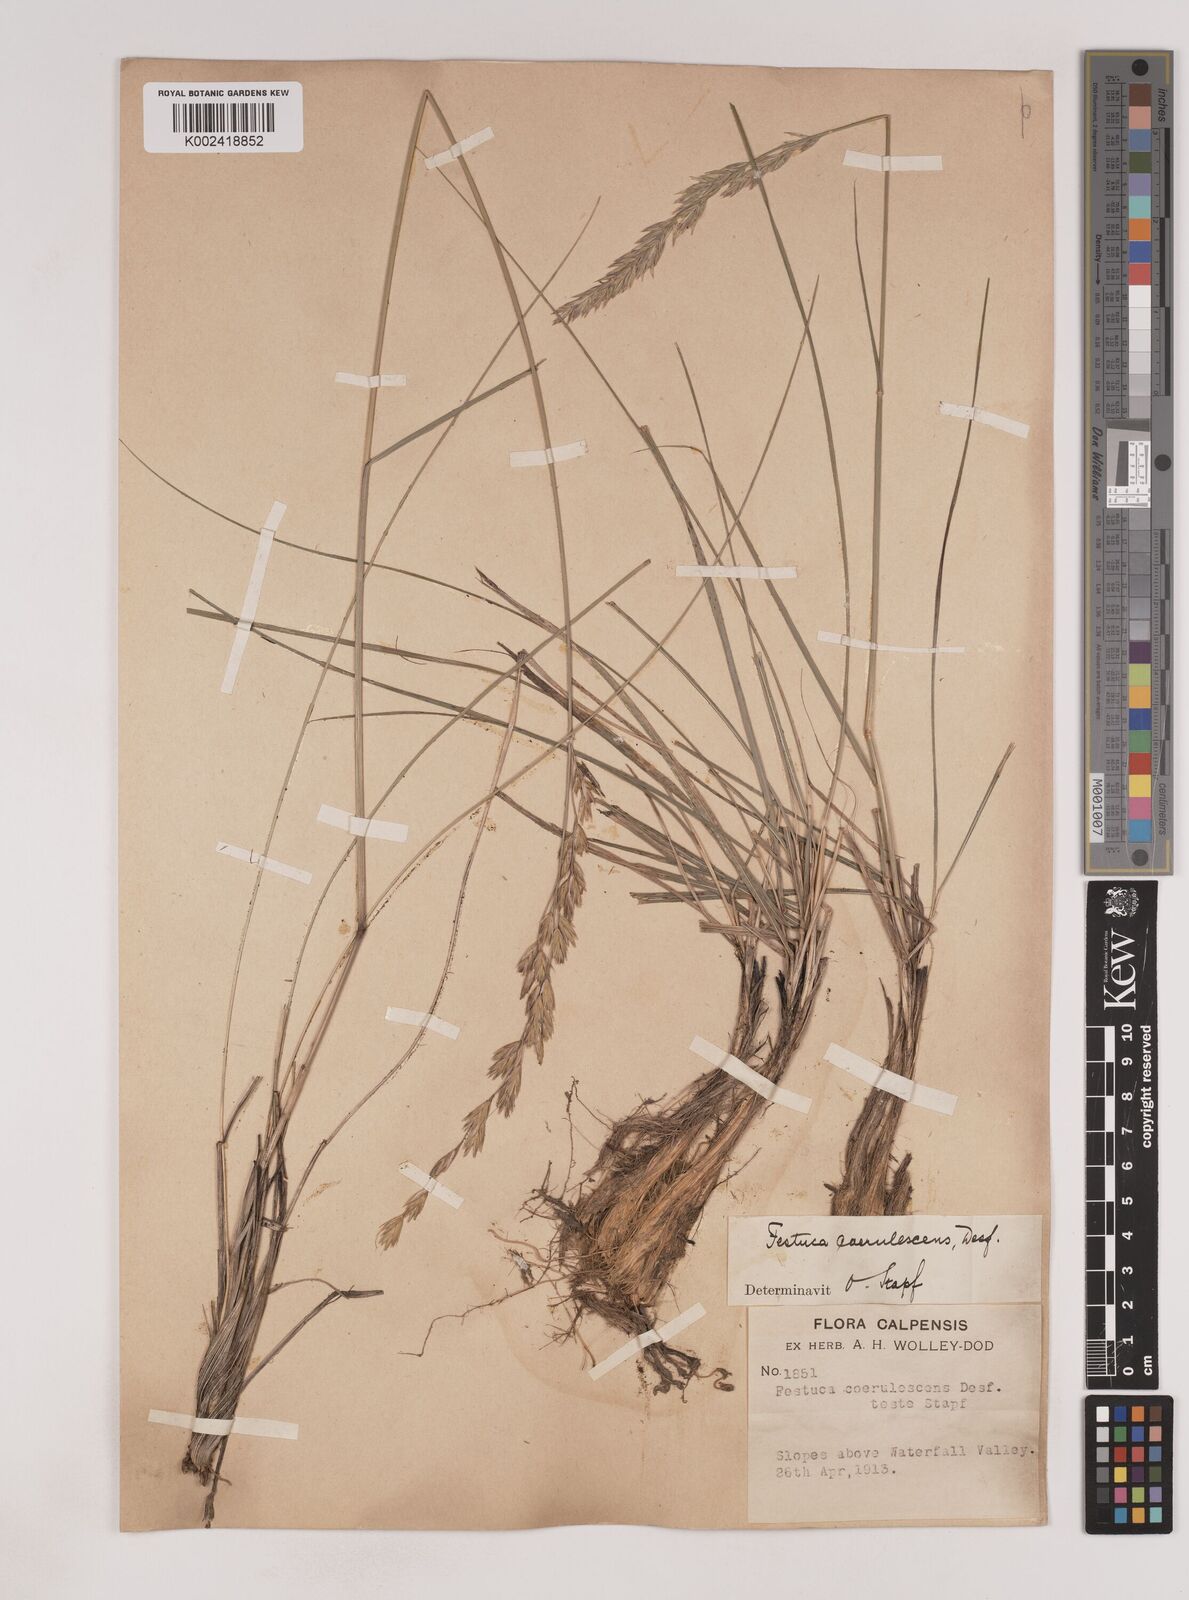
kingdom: Plantae
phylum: Tracheophyta
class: Liliopsida
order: Poales
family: Poaceae
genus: Patzkea
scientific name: Patzkea coerulescens
